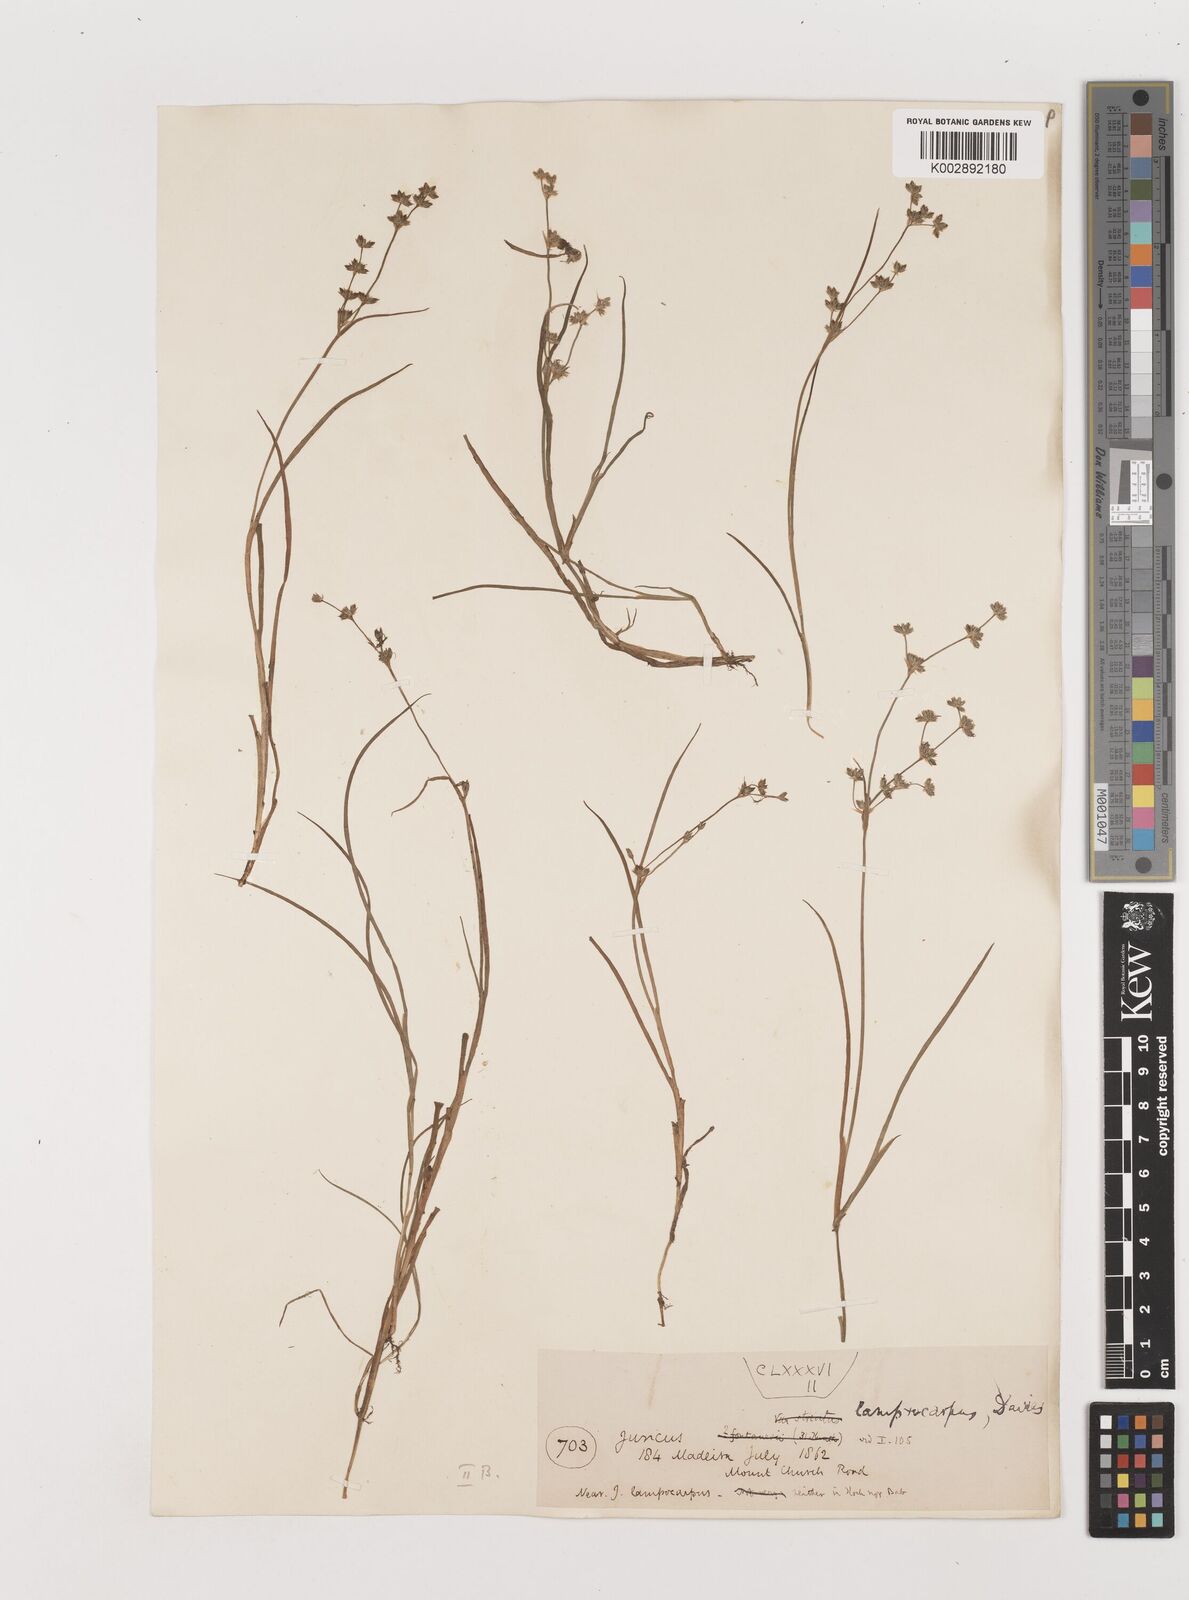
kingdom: Plantae
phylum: Tracheophyta
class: Liliopsida
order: Poales
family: Juncaceae
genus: Juncus
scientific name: Juncus articulatus
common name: Jointed rush
